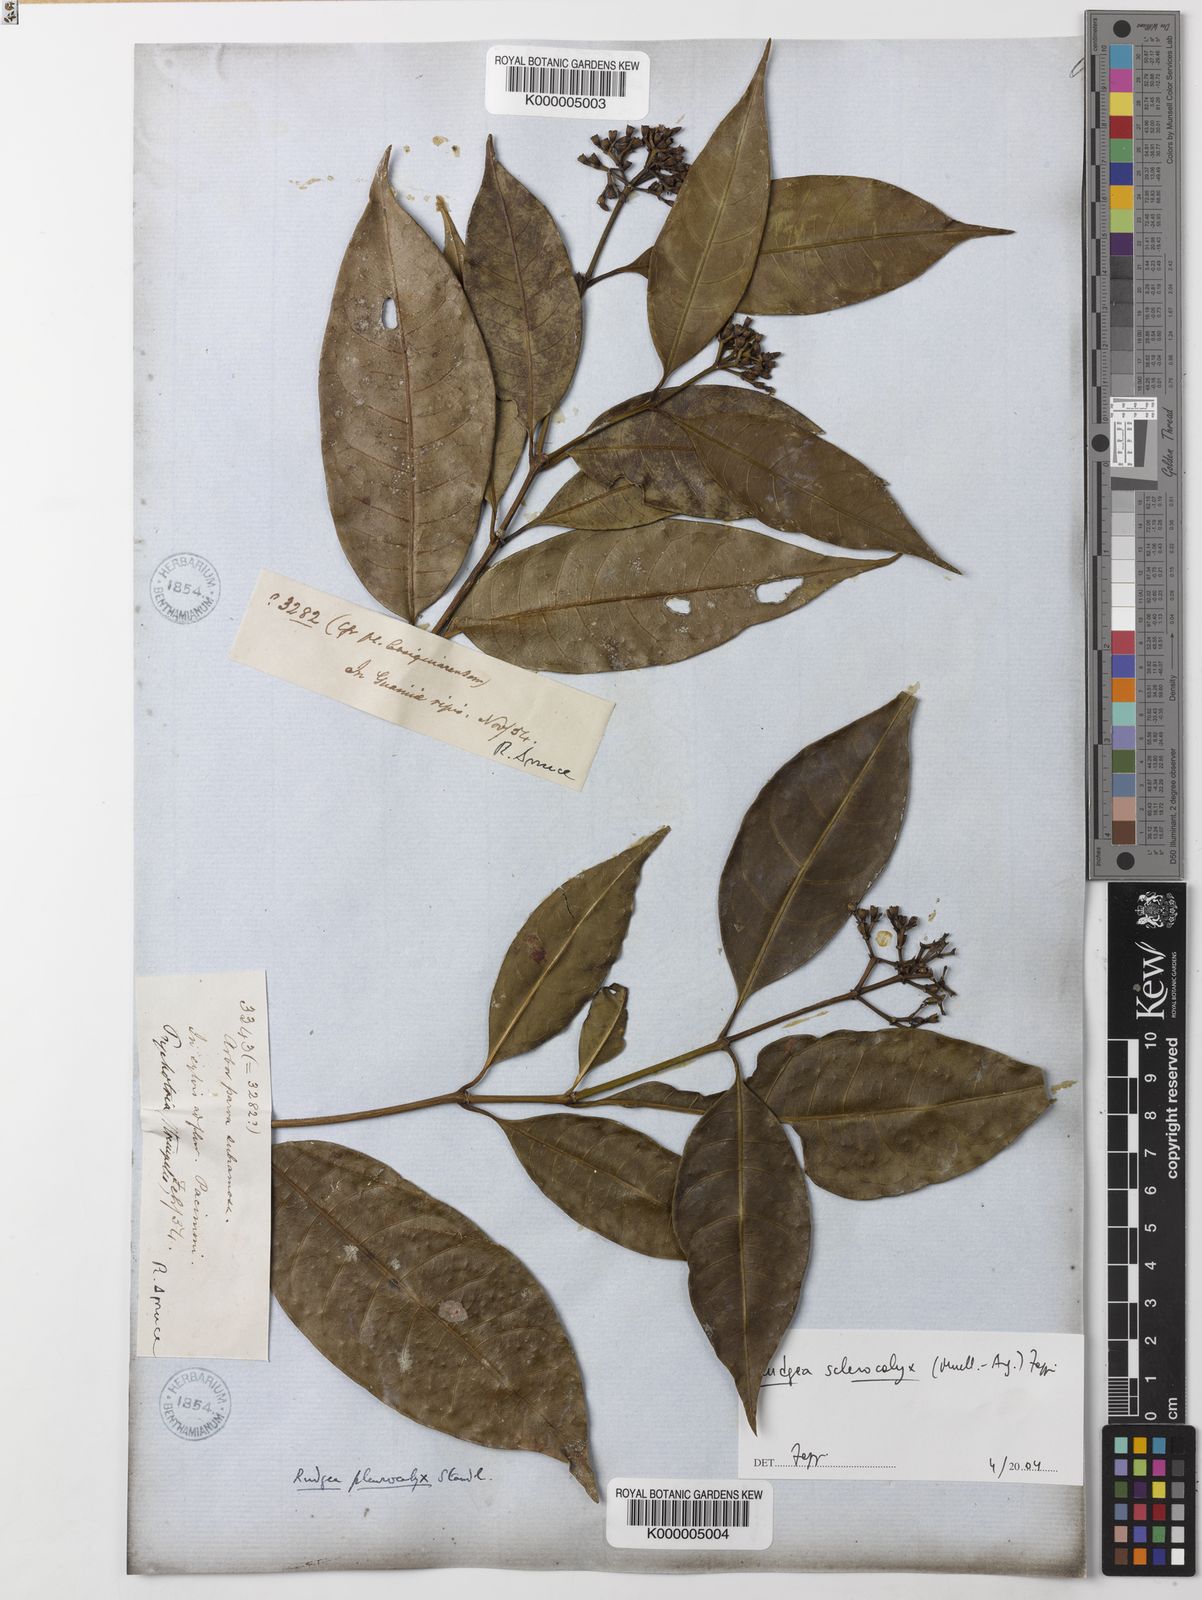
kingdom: Plantae
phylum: Tracheophyta
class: Magnoliopsida
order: Gentianales
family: Rubiaceae
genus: Rudgea
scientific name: Rudgea sclerocalyx
